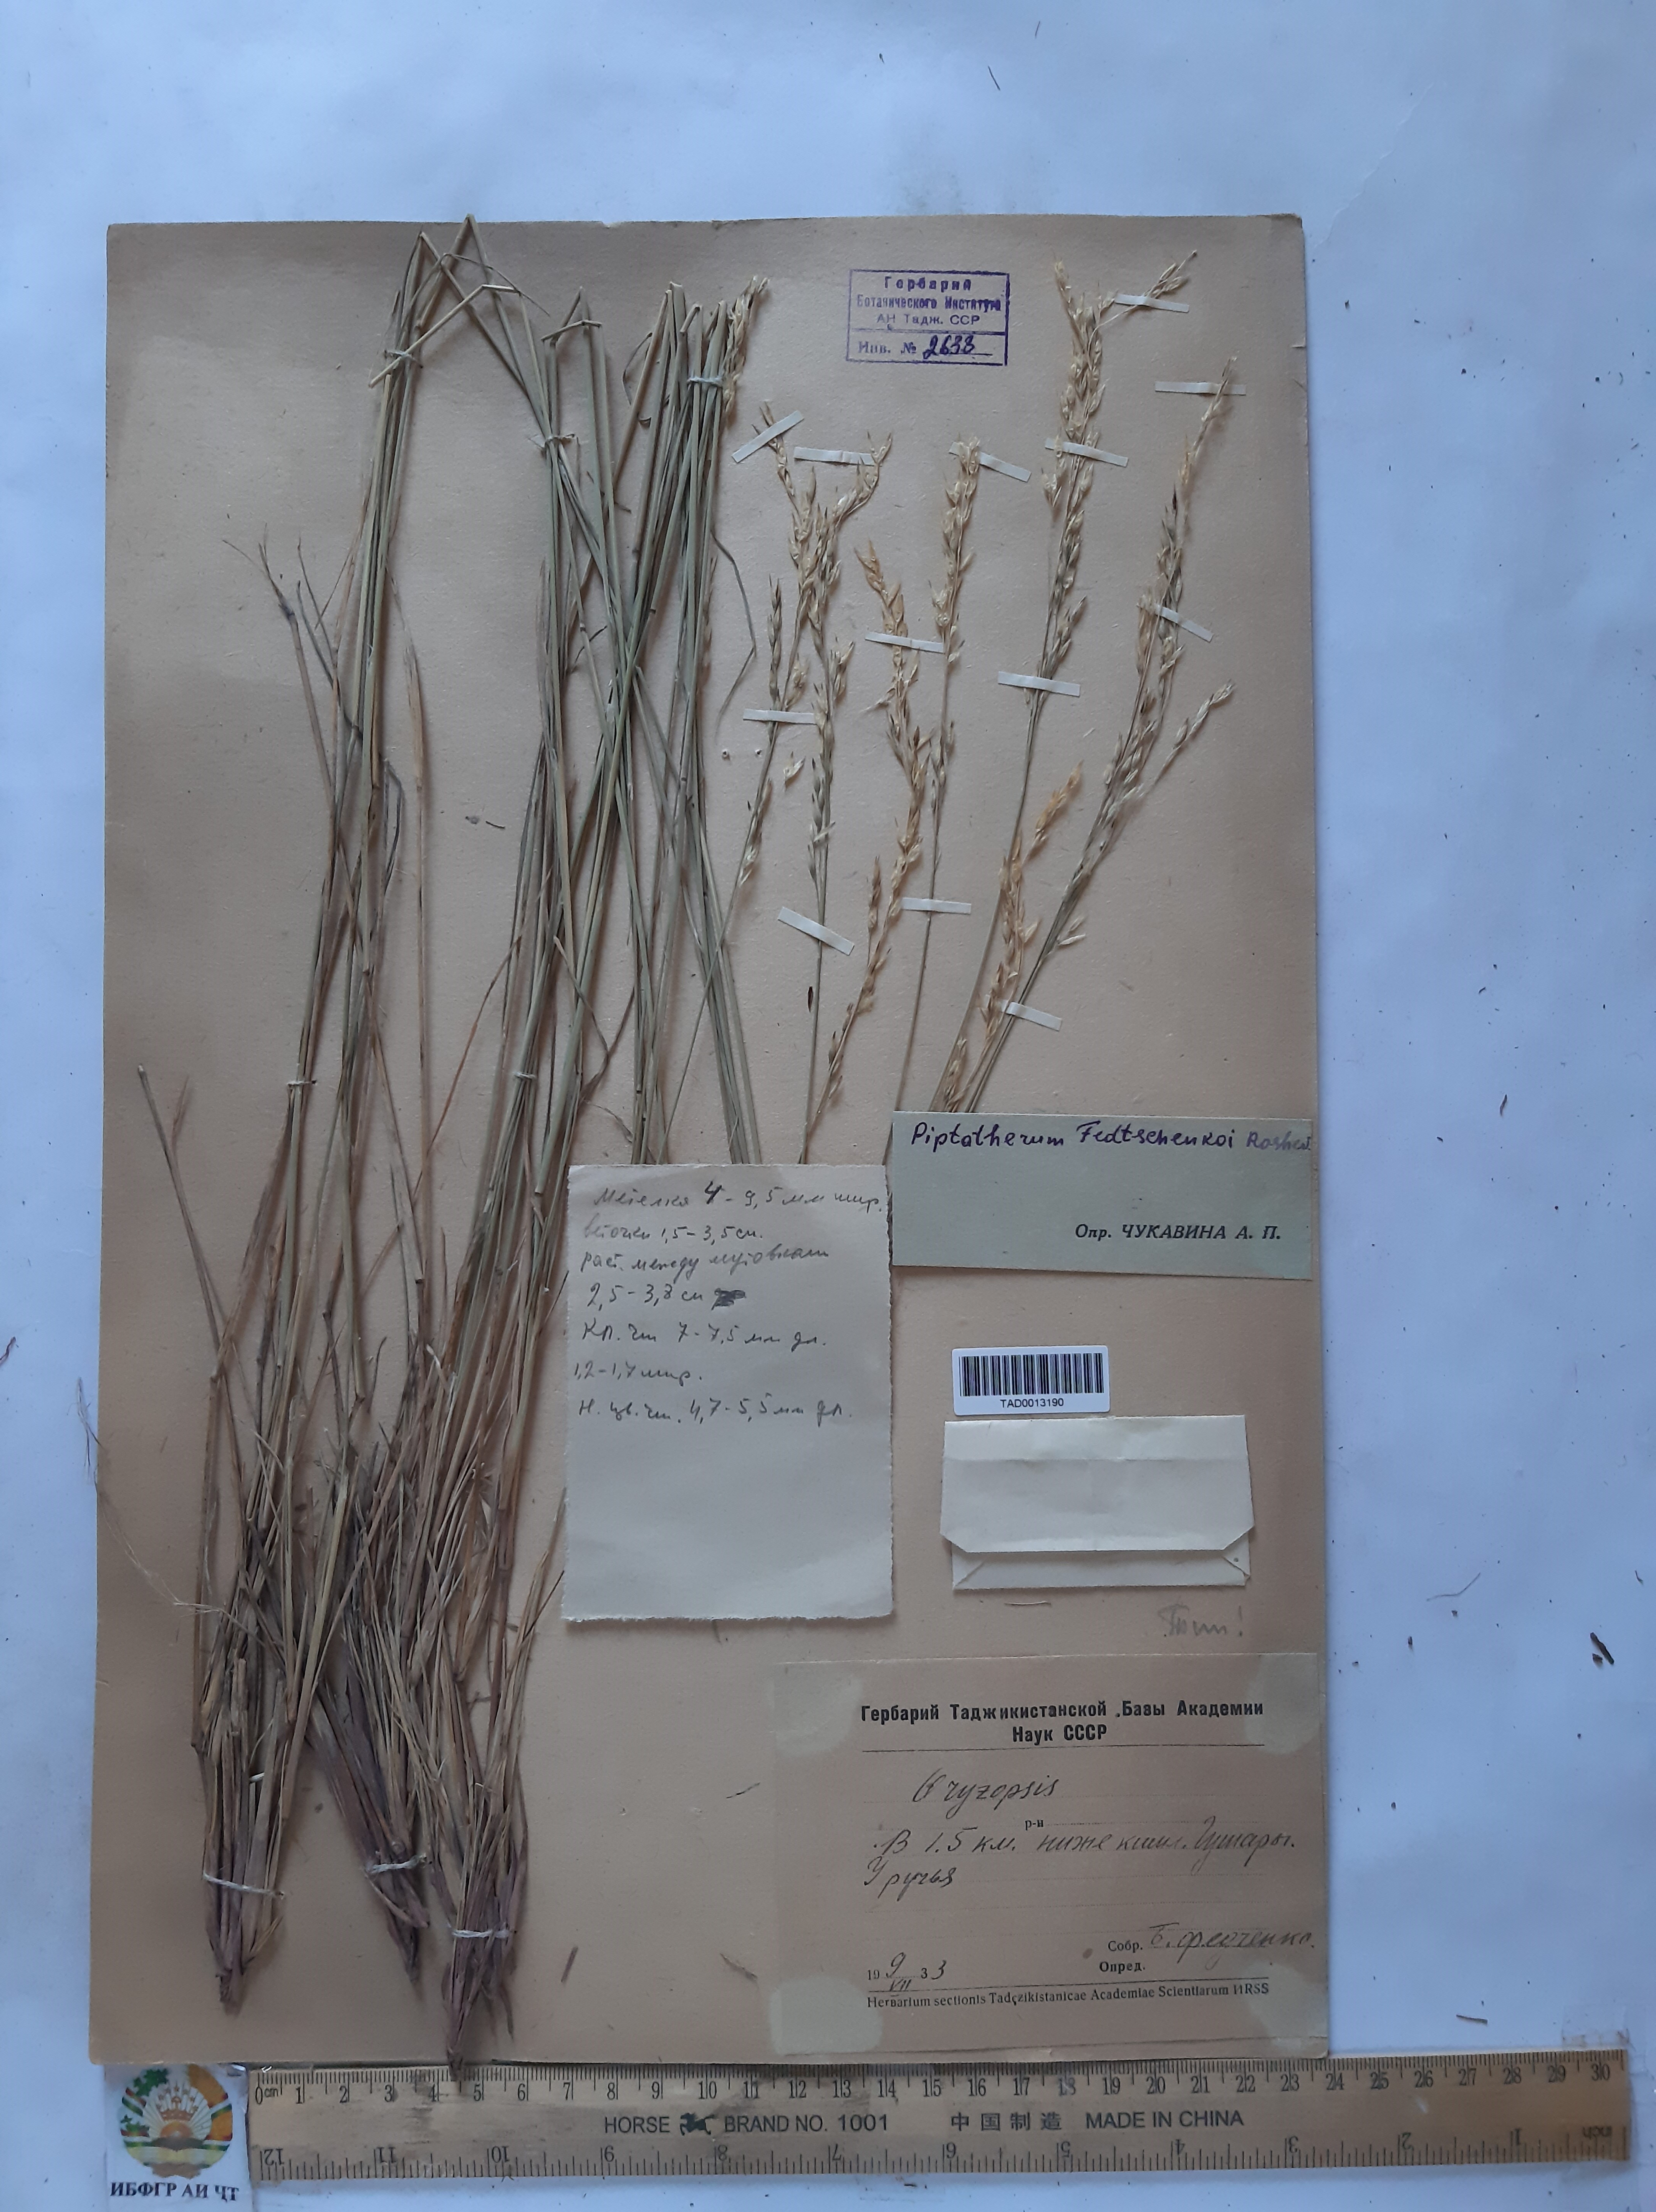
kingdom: Plantae
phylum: Tracheophyta
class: Liliopsida
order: Poales
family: Poaceae
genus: Piptatherum
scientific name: Piptatherum sogdianum
